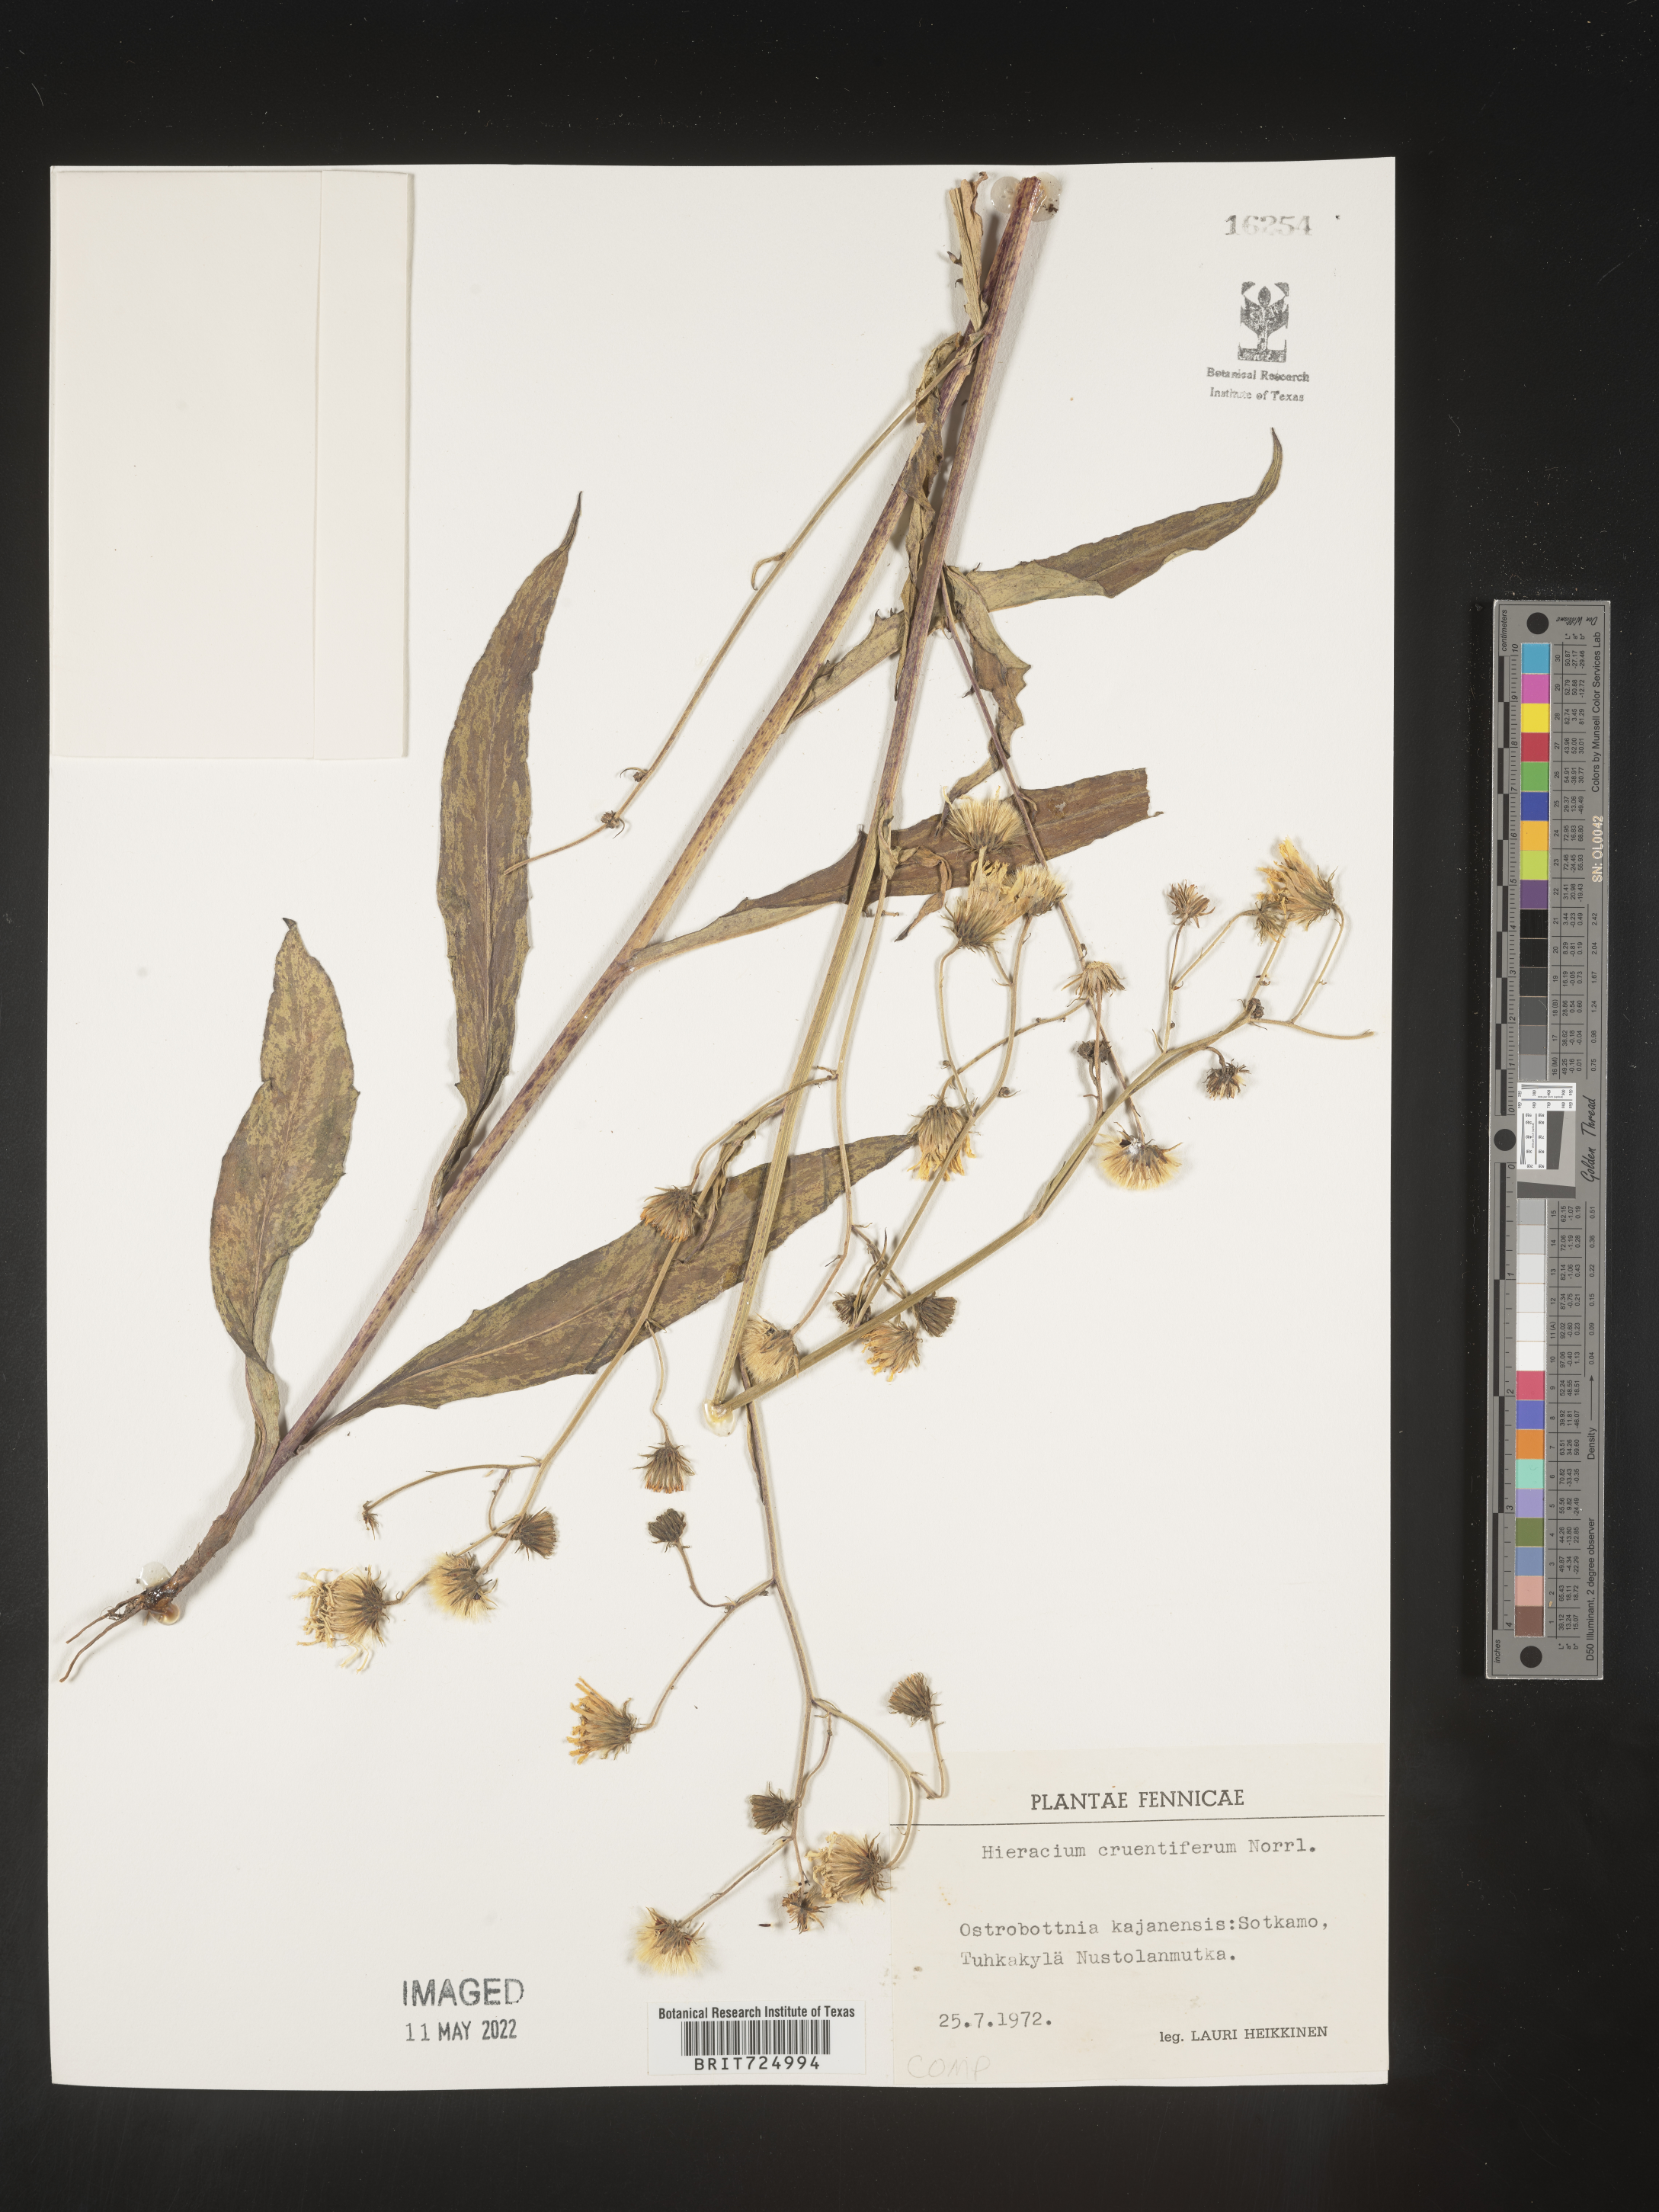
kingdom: Plantae
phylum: Tracheophyta
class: Magnoliopsida
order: Asterales
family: Asteraceae
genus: Hieracium
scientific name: Hieracium
